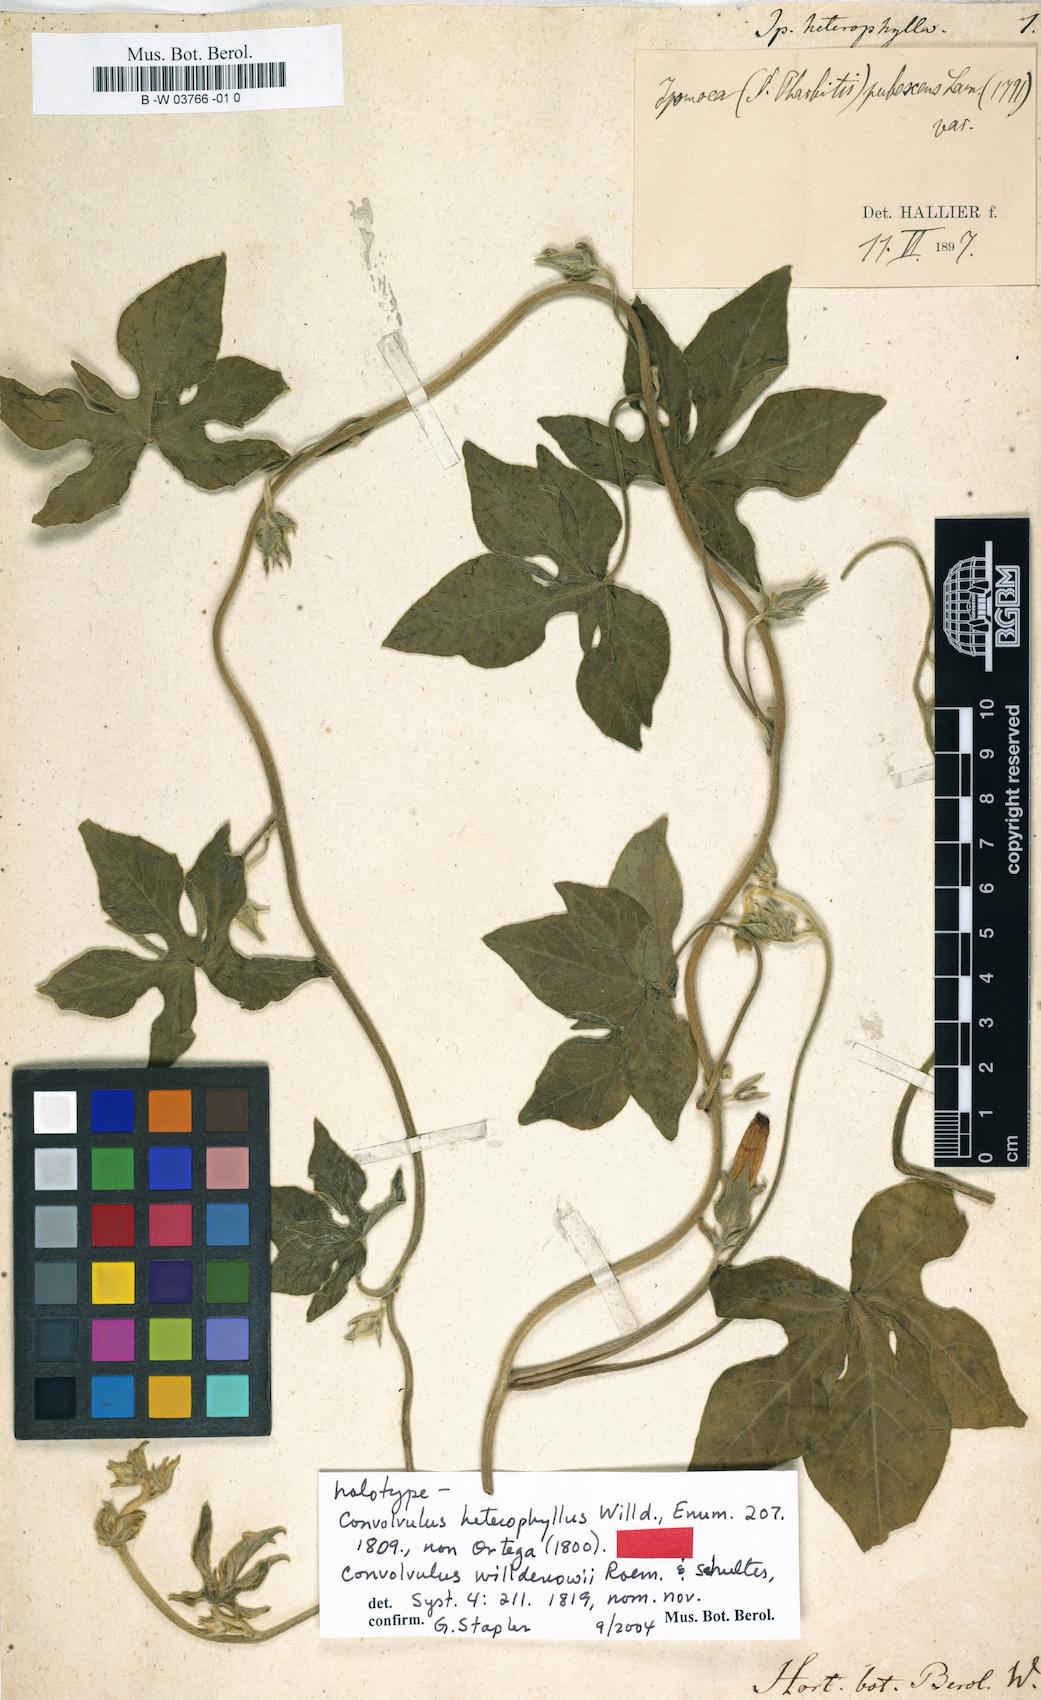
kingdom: Plantae
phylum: Tracheophyta
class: Magnoliopsida
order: Solanales
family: Convolvulaceae
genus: Ipomoea
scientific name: Ipomoea
